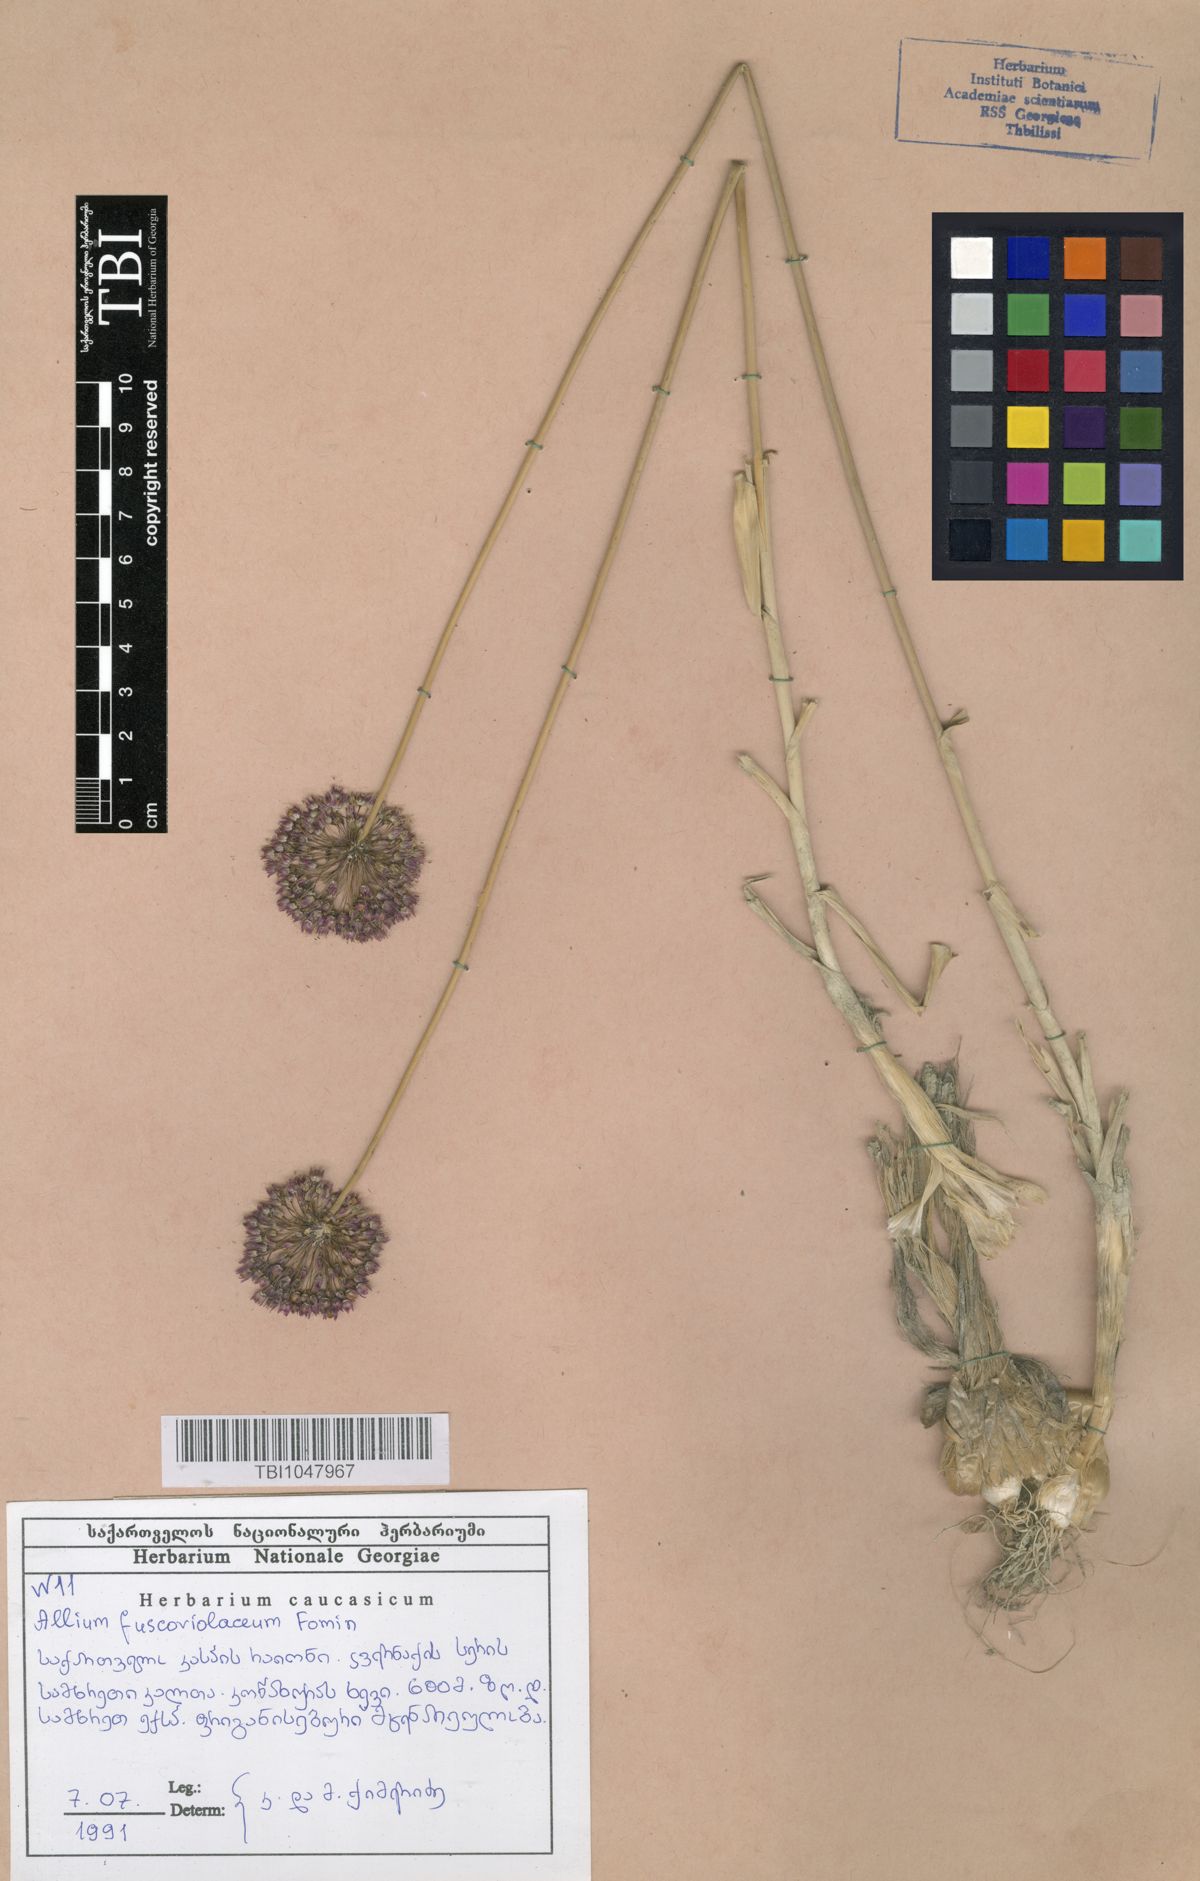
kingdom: Plantae
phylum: Tracheophyta
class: Liliopsida
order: Asparagales
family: Amaryllidaceae
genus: Allium
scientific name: Allium fuscoviolaceum
